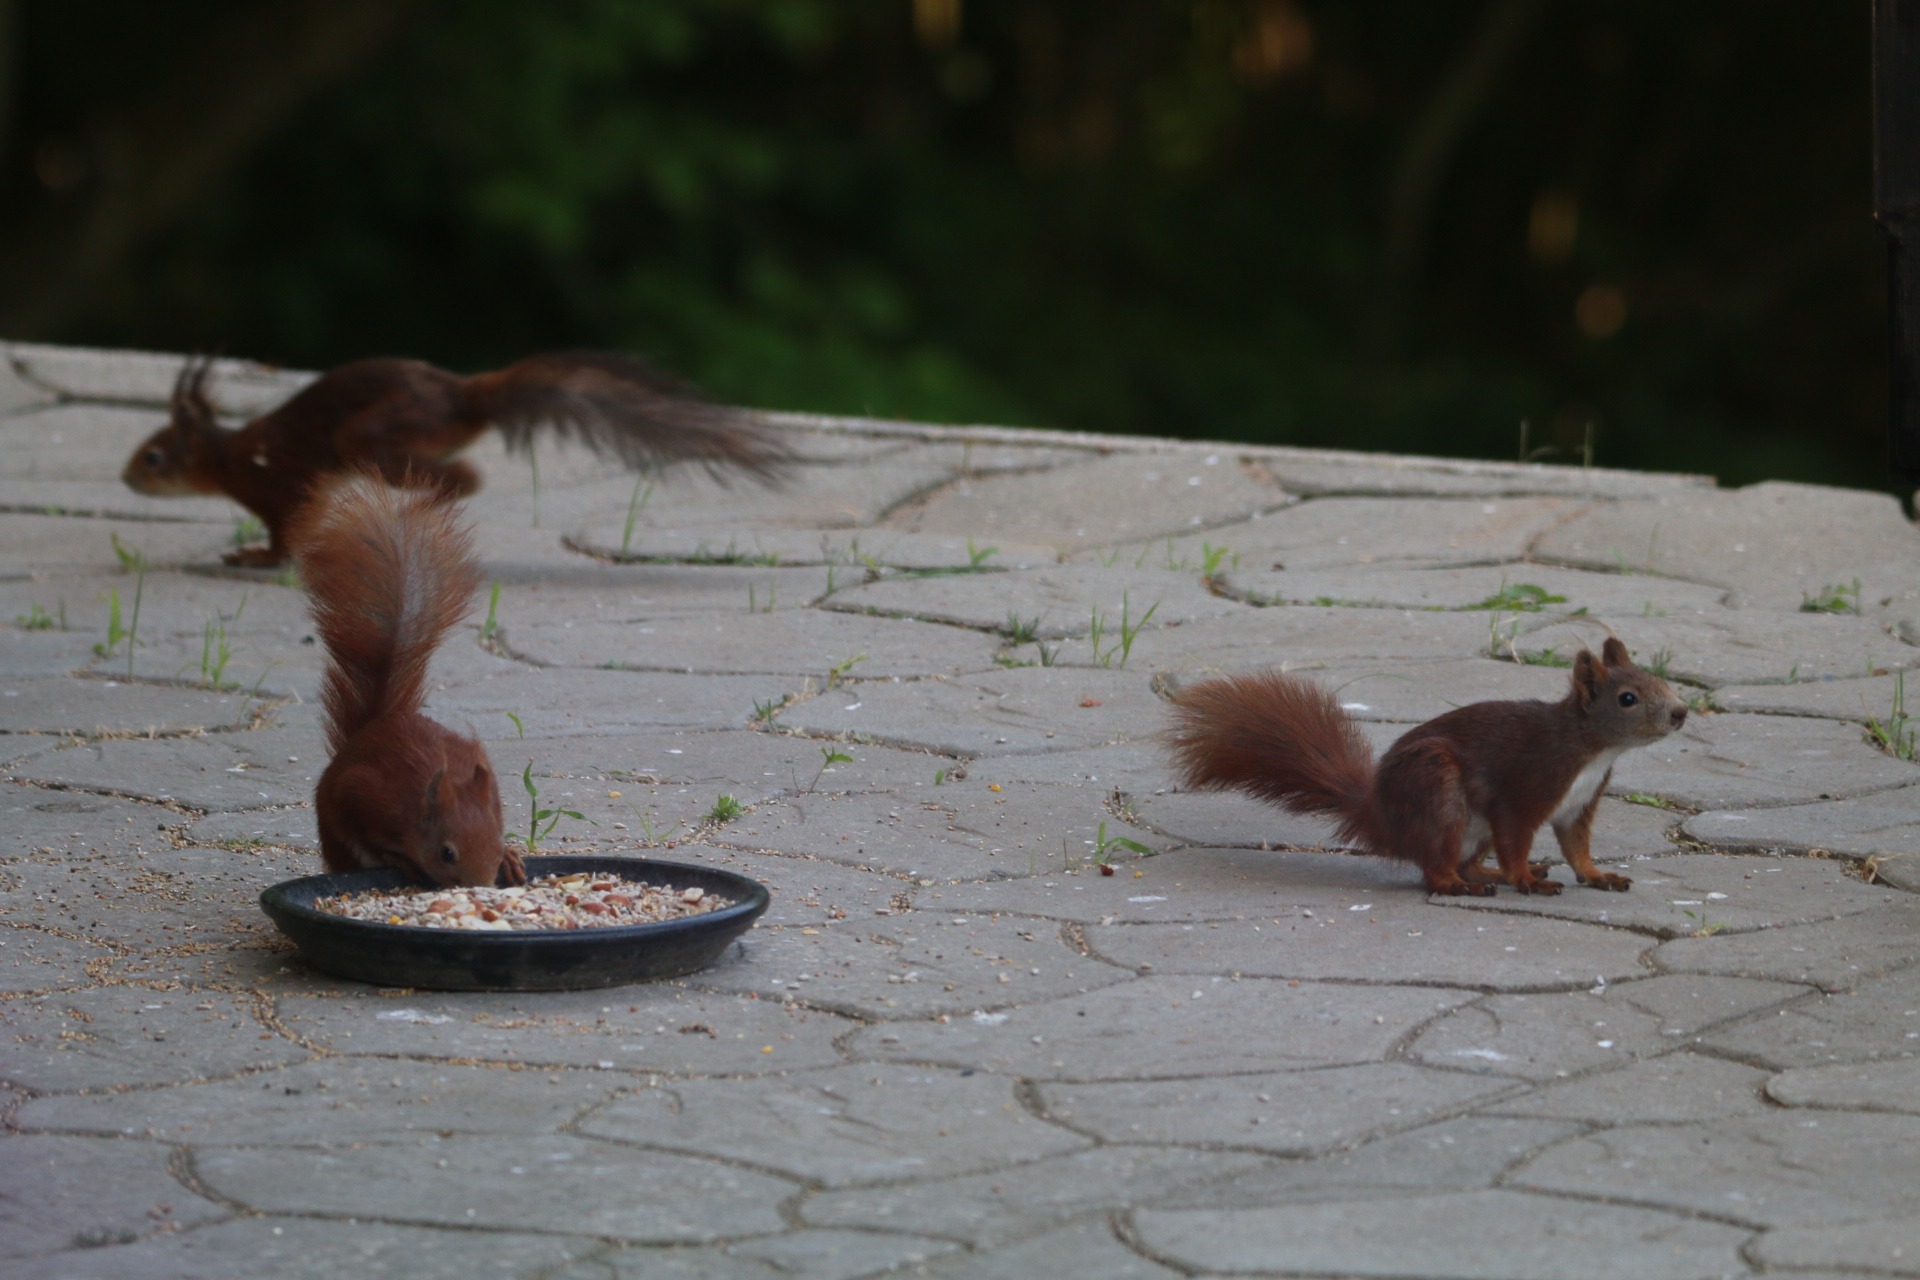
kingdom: Animalia
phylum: Chordata
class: Mammalia
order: Rodentia
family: Sciuridae
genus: Sciurus
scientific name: Sciurus vulgaris
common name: Egern
